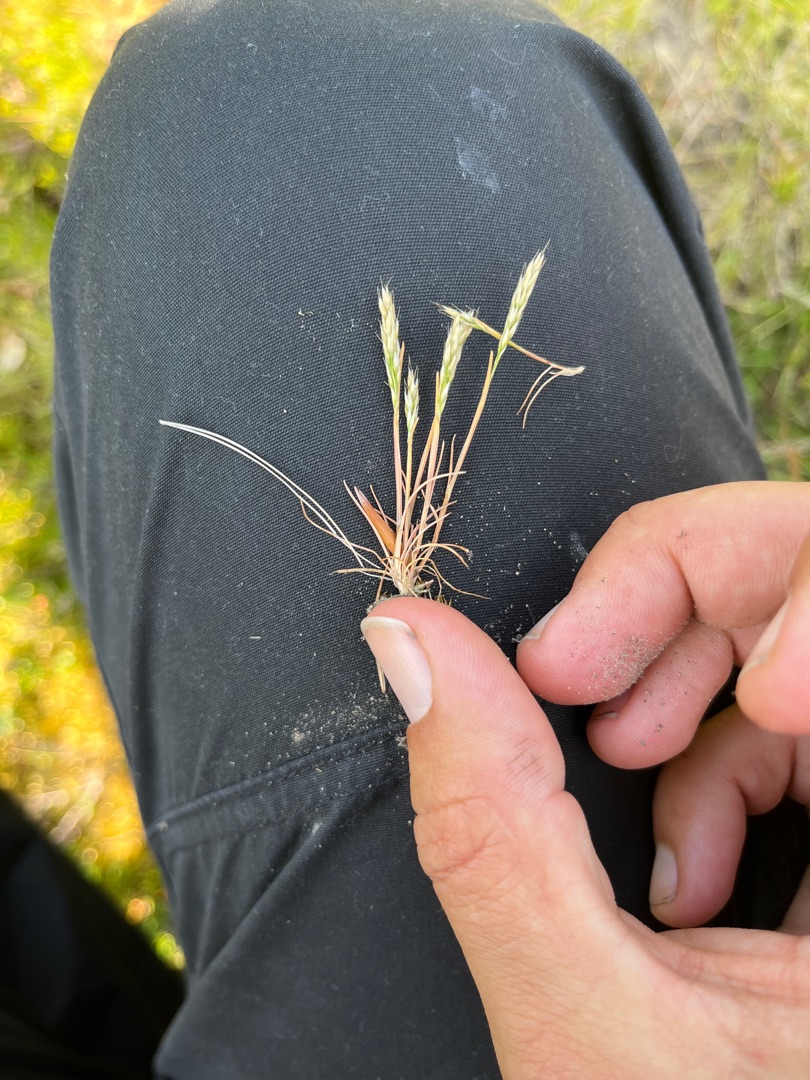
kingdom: Plantae
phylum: Tracheophyta
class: Liliopsida
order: Poales
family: Poaceae
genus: Aira
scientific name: Aira praecox
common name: Tidlig dværgbunke
